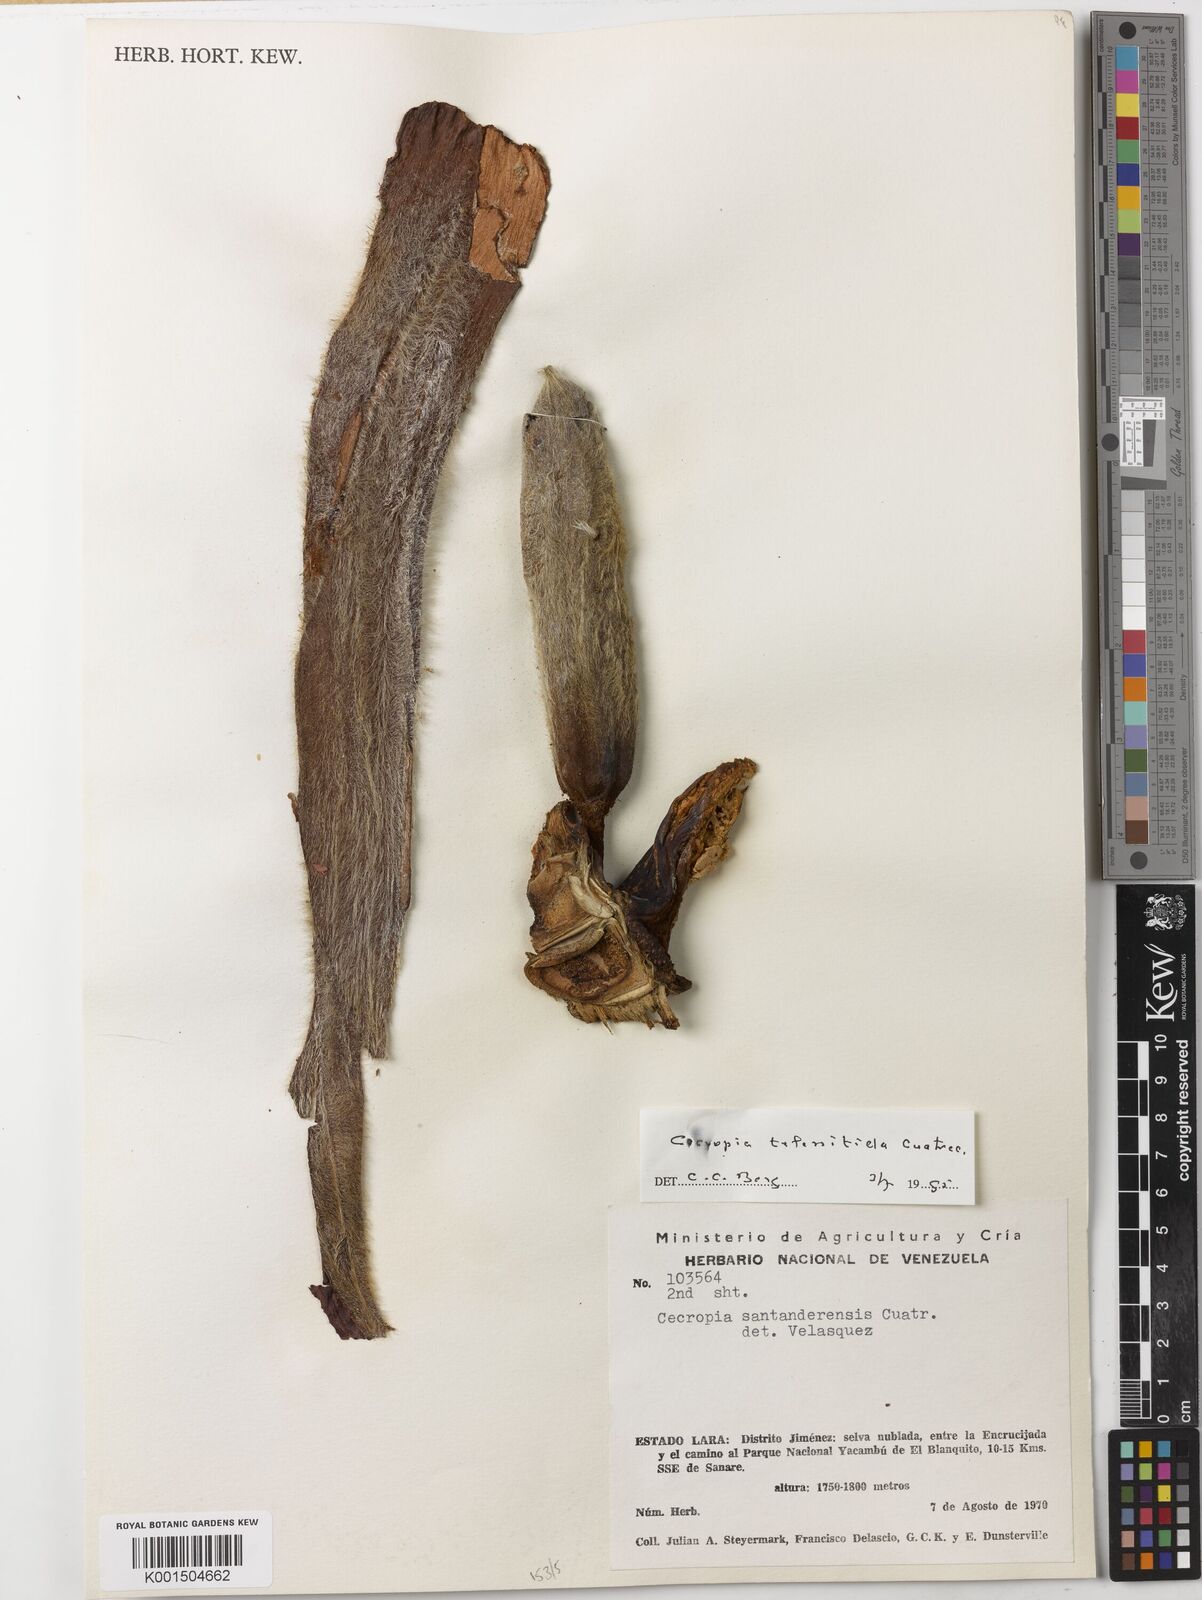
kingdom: Plantae
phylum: Tracheophyta
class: Magnoliopsida
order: Rosales
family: Urticaceae
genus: Cecropia
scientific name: Cecropia telenitida
